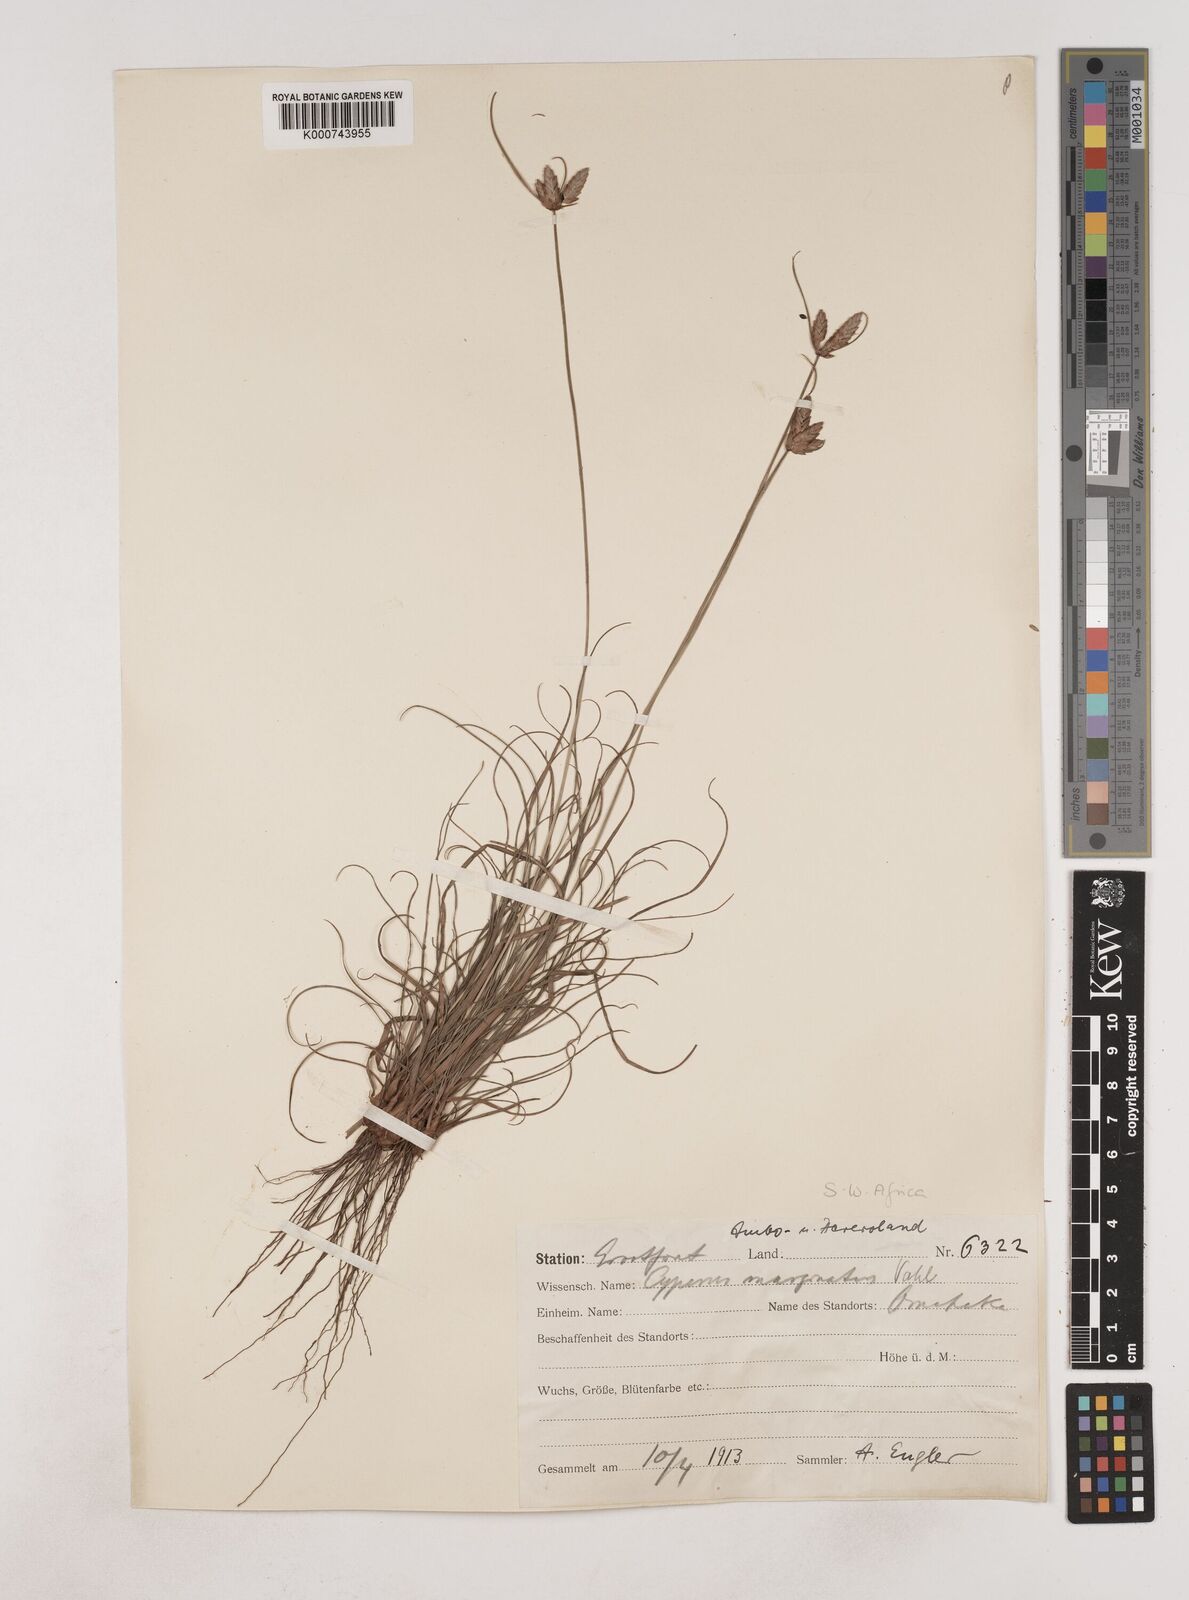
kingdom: Plantae
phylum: Tracheophyta
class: Liliopsida
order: Poales
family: Cyperaceae
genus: Cyperus
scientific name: Cyperus margaritaceus
